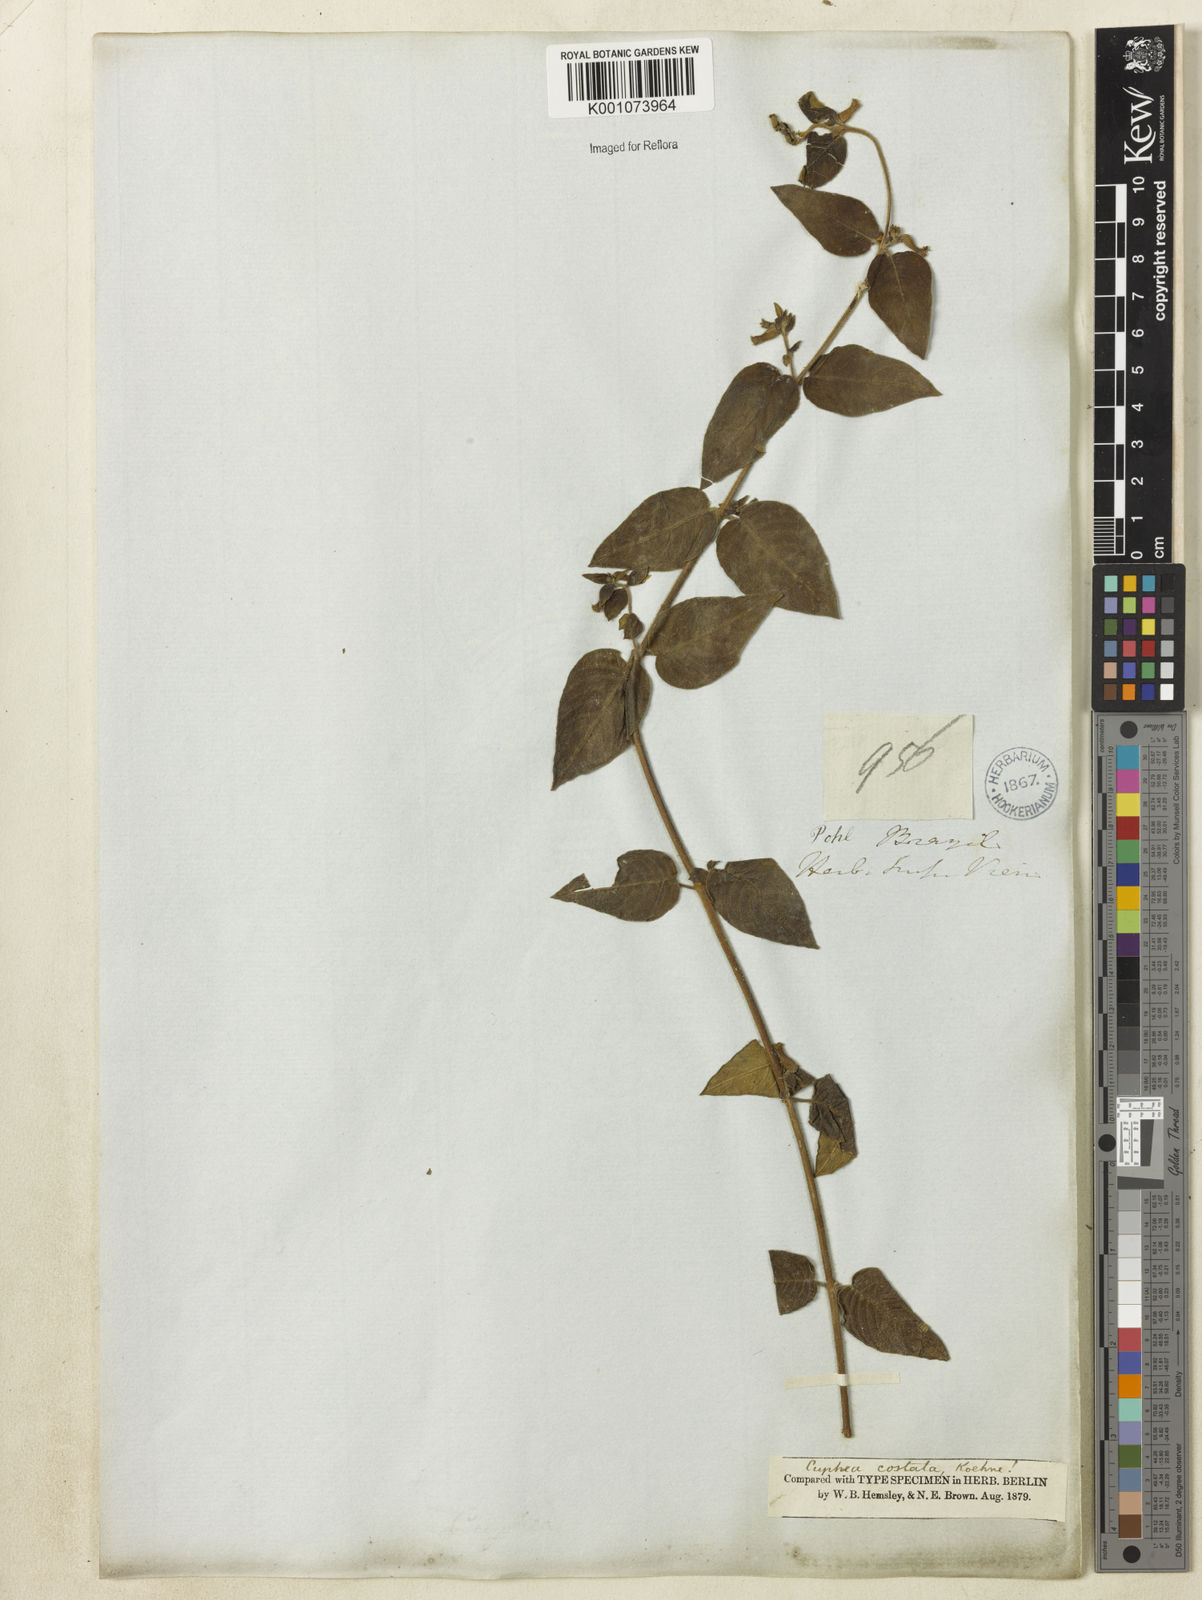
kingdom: Plantae
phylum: Tracheophyta
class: Magnoliopsida
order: Myrtales
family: Lythraceae
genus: Cuphea
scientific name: Cuphea sessiliflora
